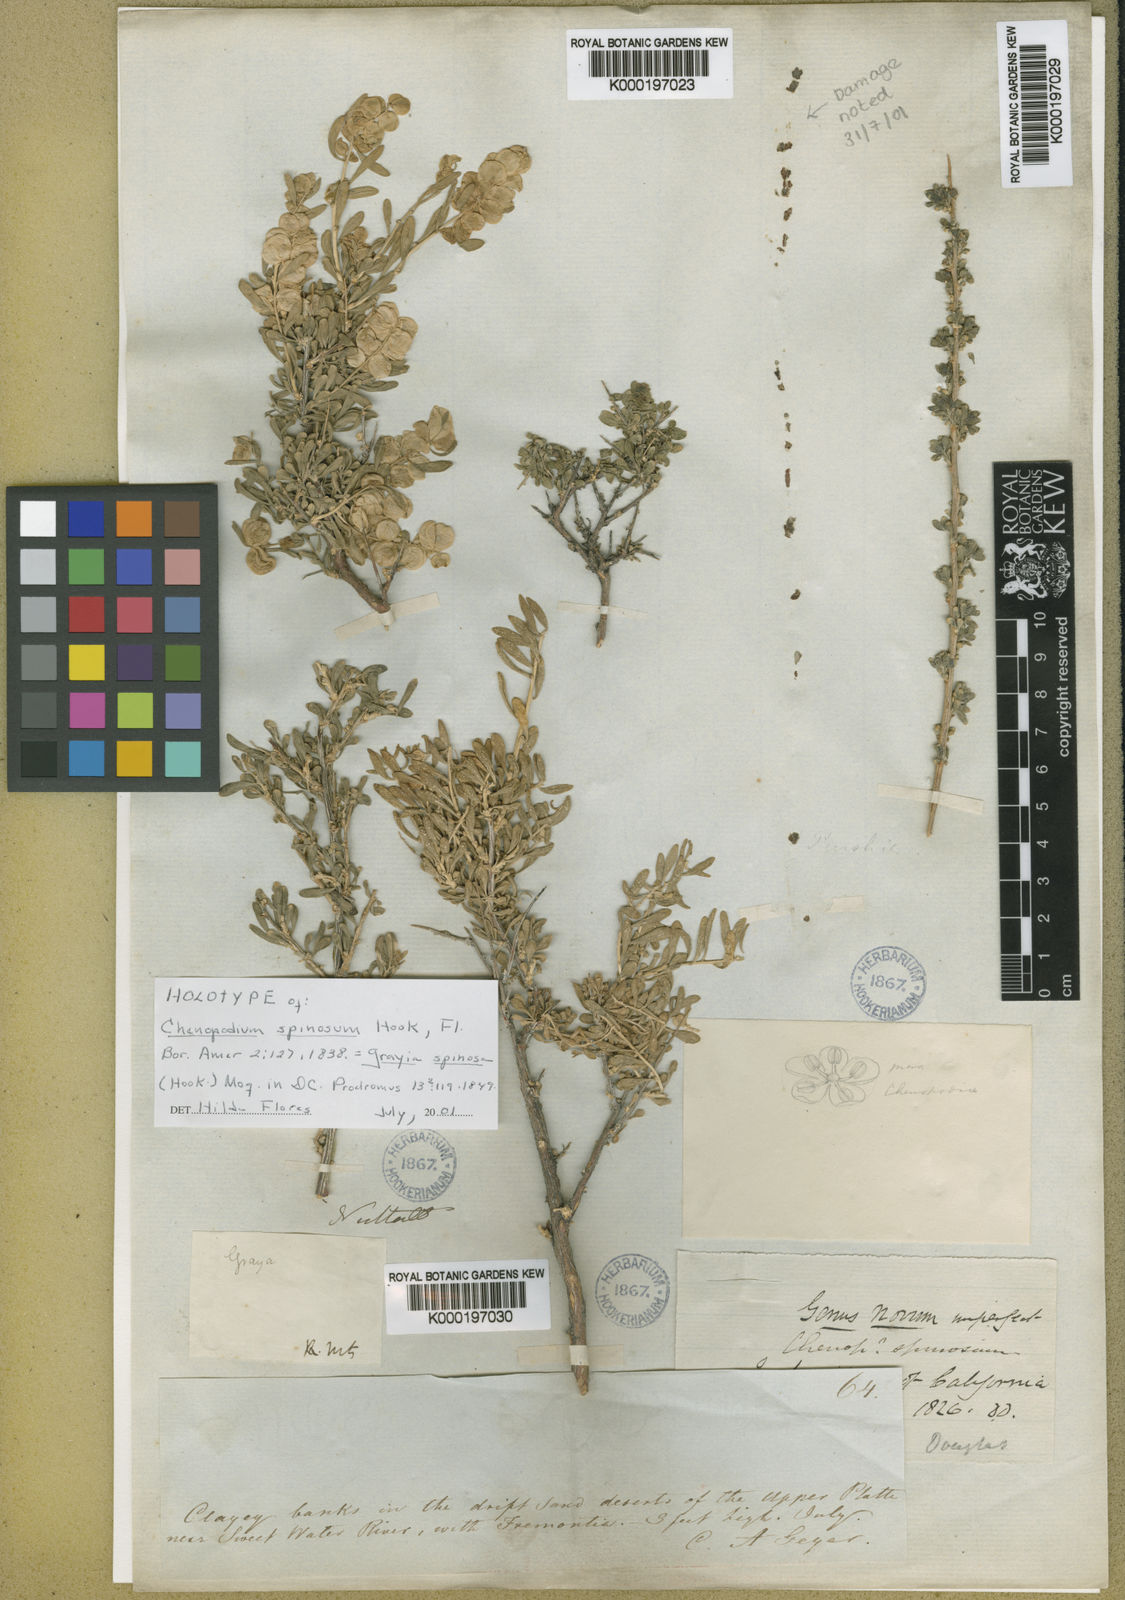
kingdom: Plantae
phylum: Tracheophyta
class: Magnoliopsida
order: Caryophyllales
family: Amaranthaceae
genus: Grayia
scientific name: Grayia spinosa
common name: Spiny hopsage
